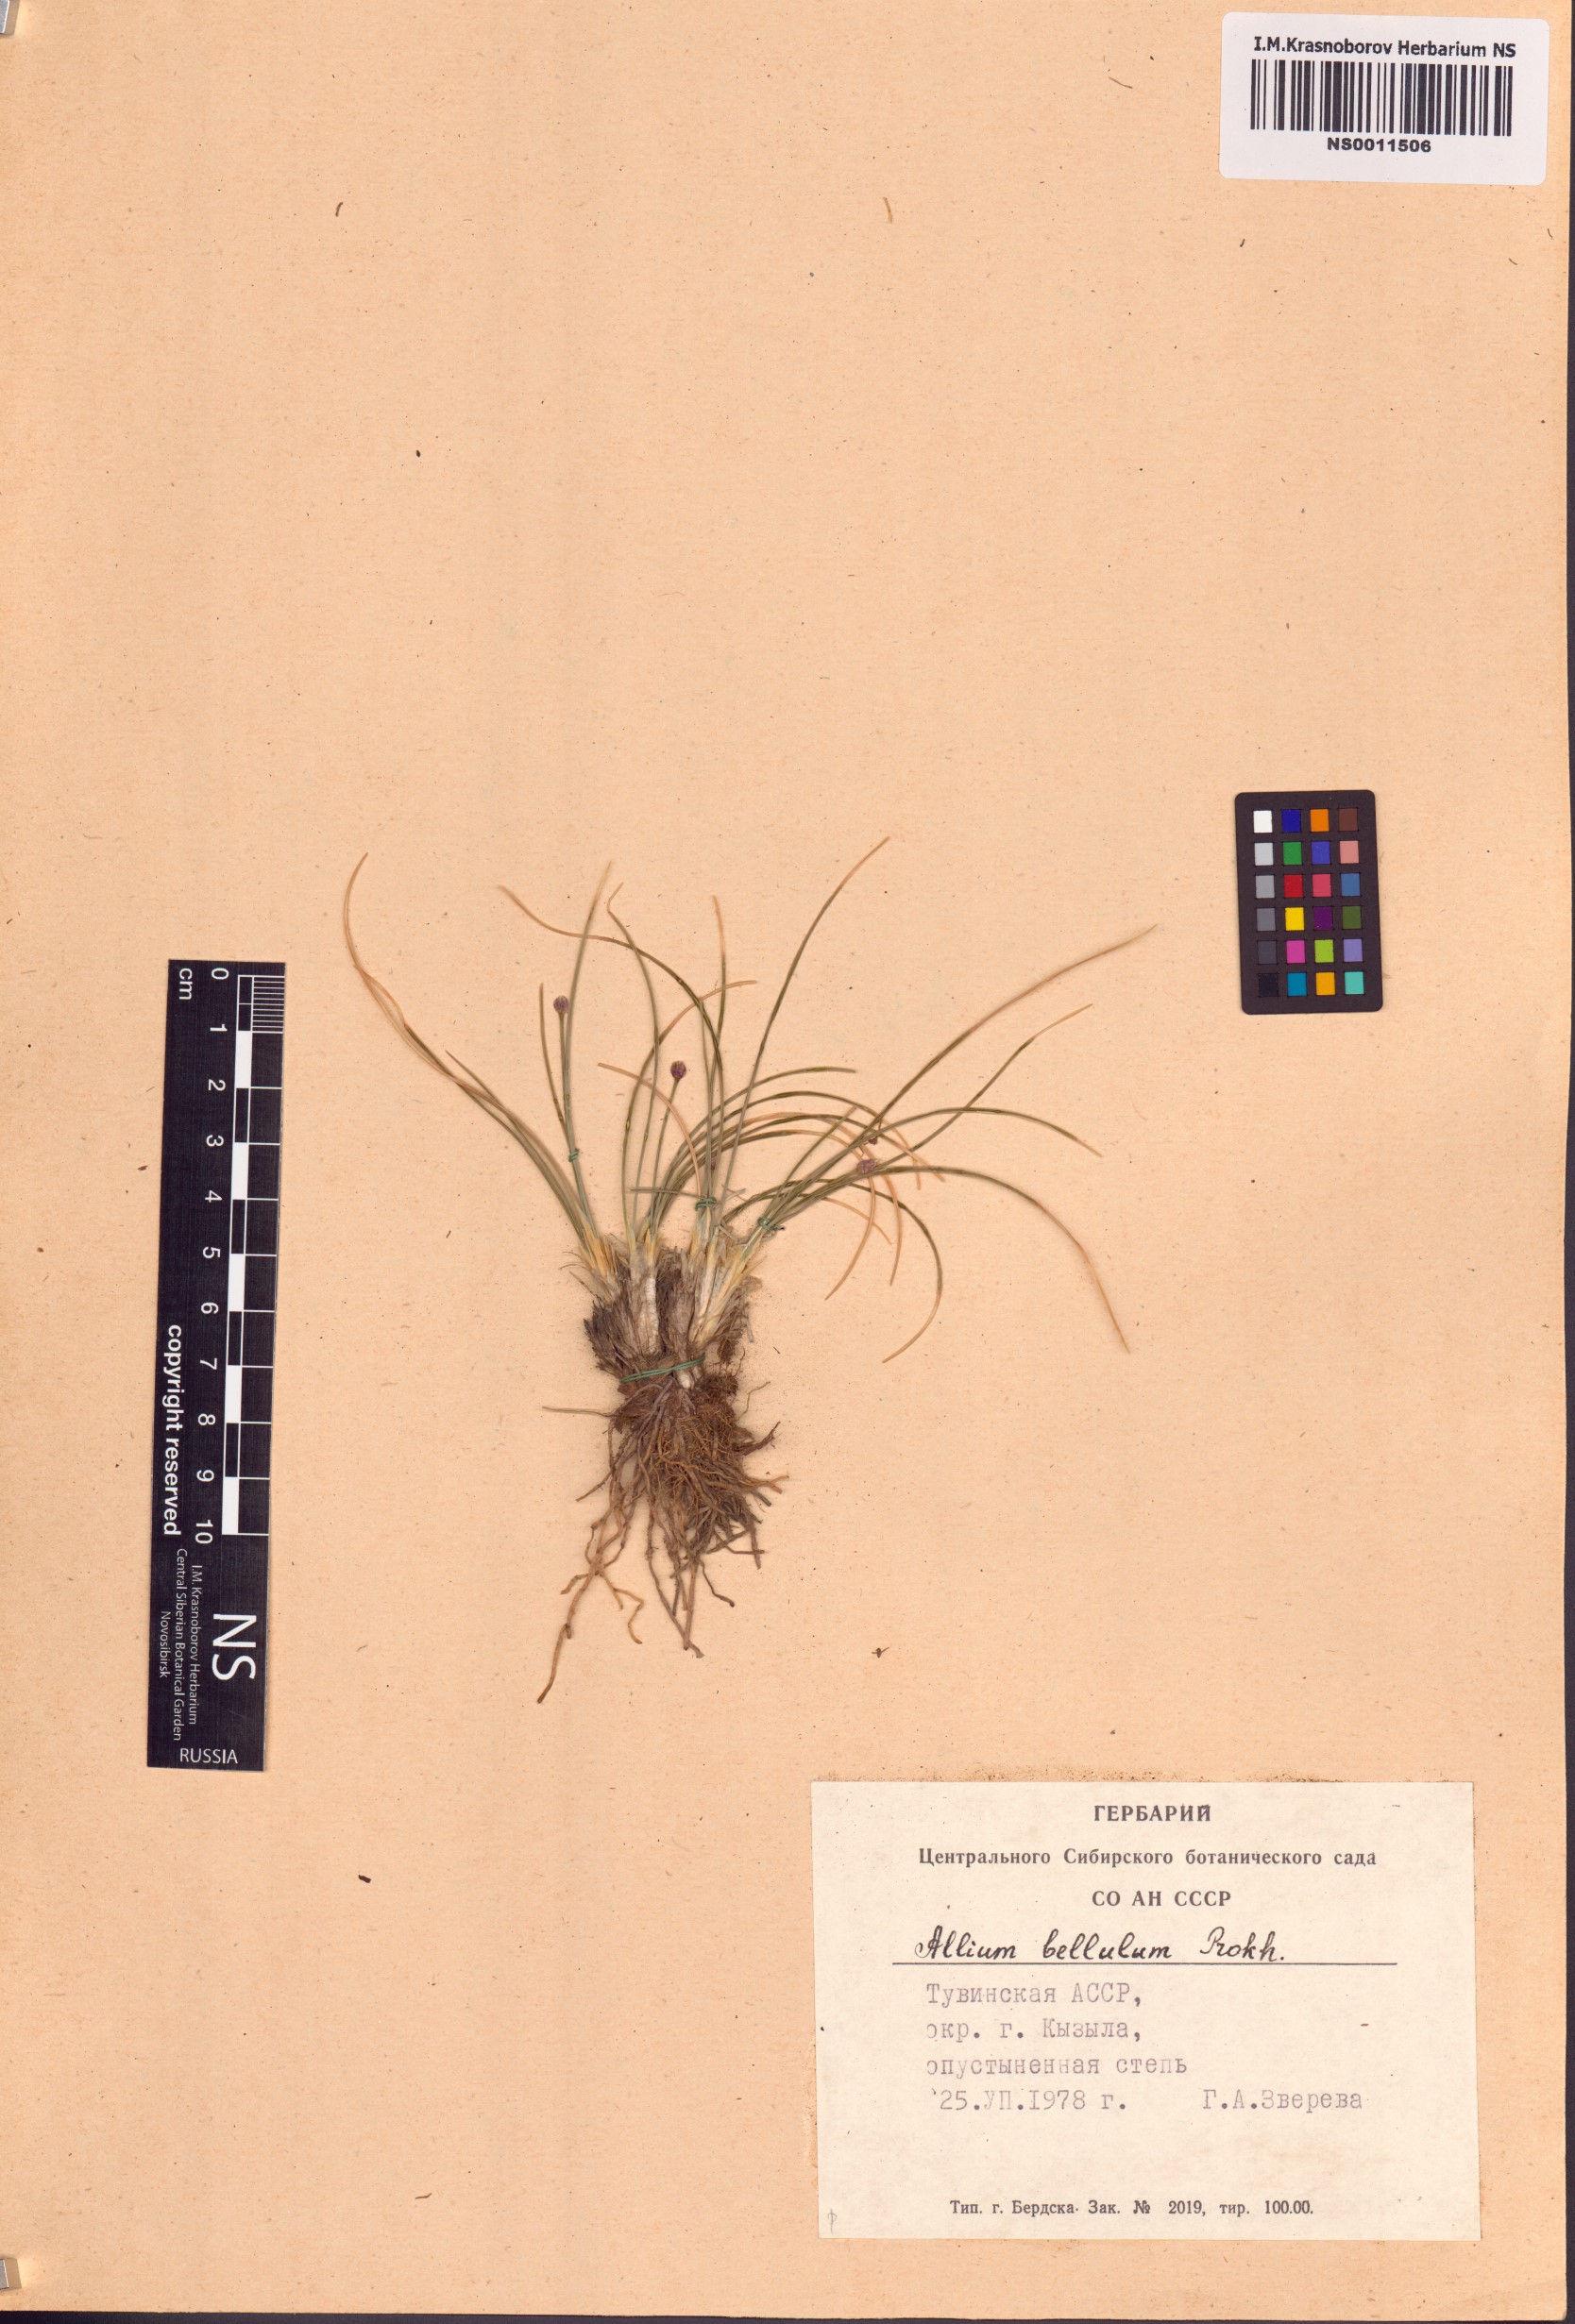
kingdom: Plantae
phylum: Tracheophyta
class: Liliopsida
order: Asparagales
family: Amaryllidaceae
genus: Allium
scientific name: Allium bellulum
